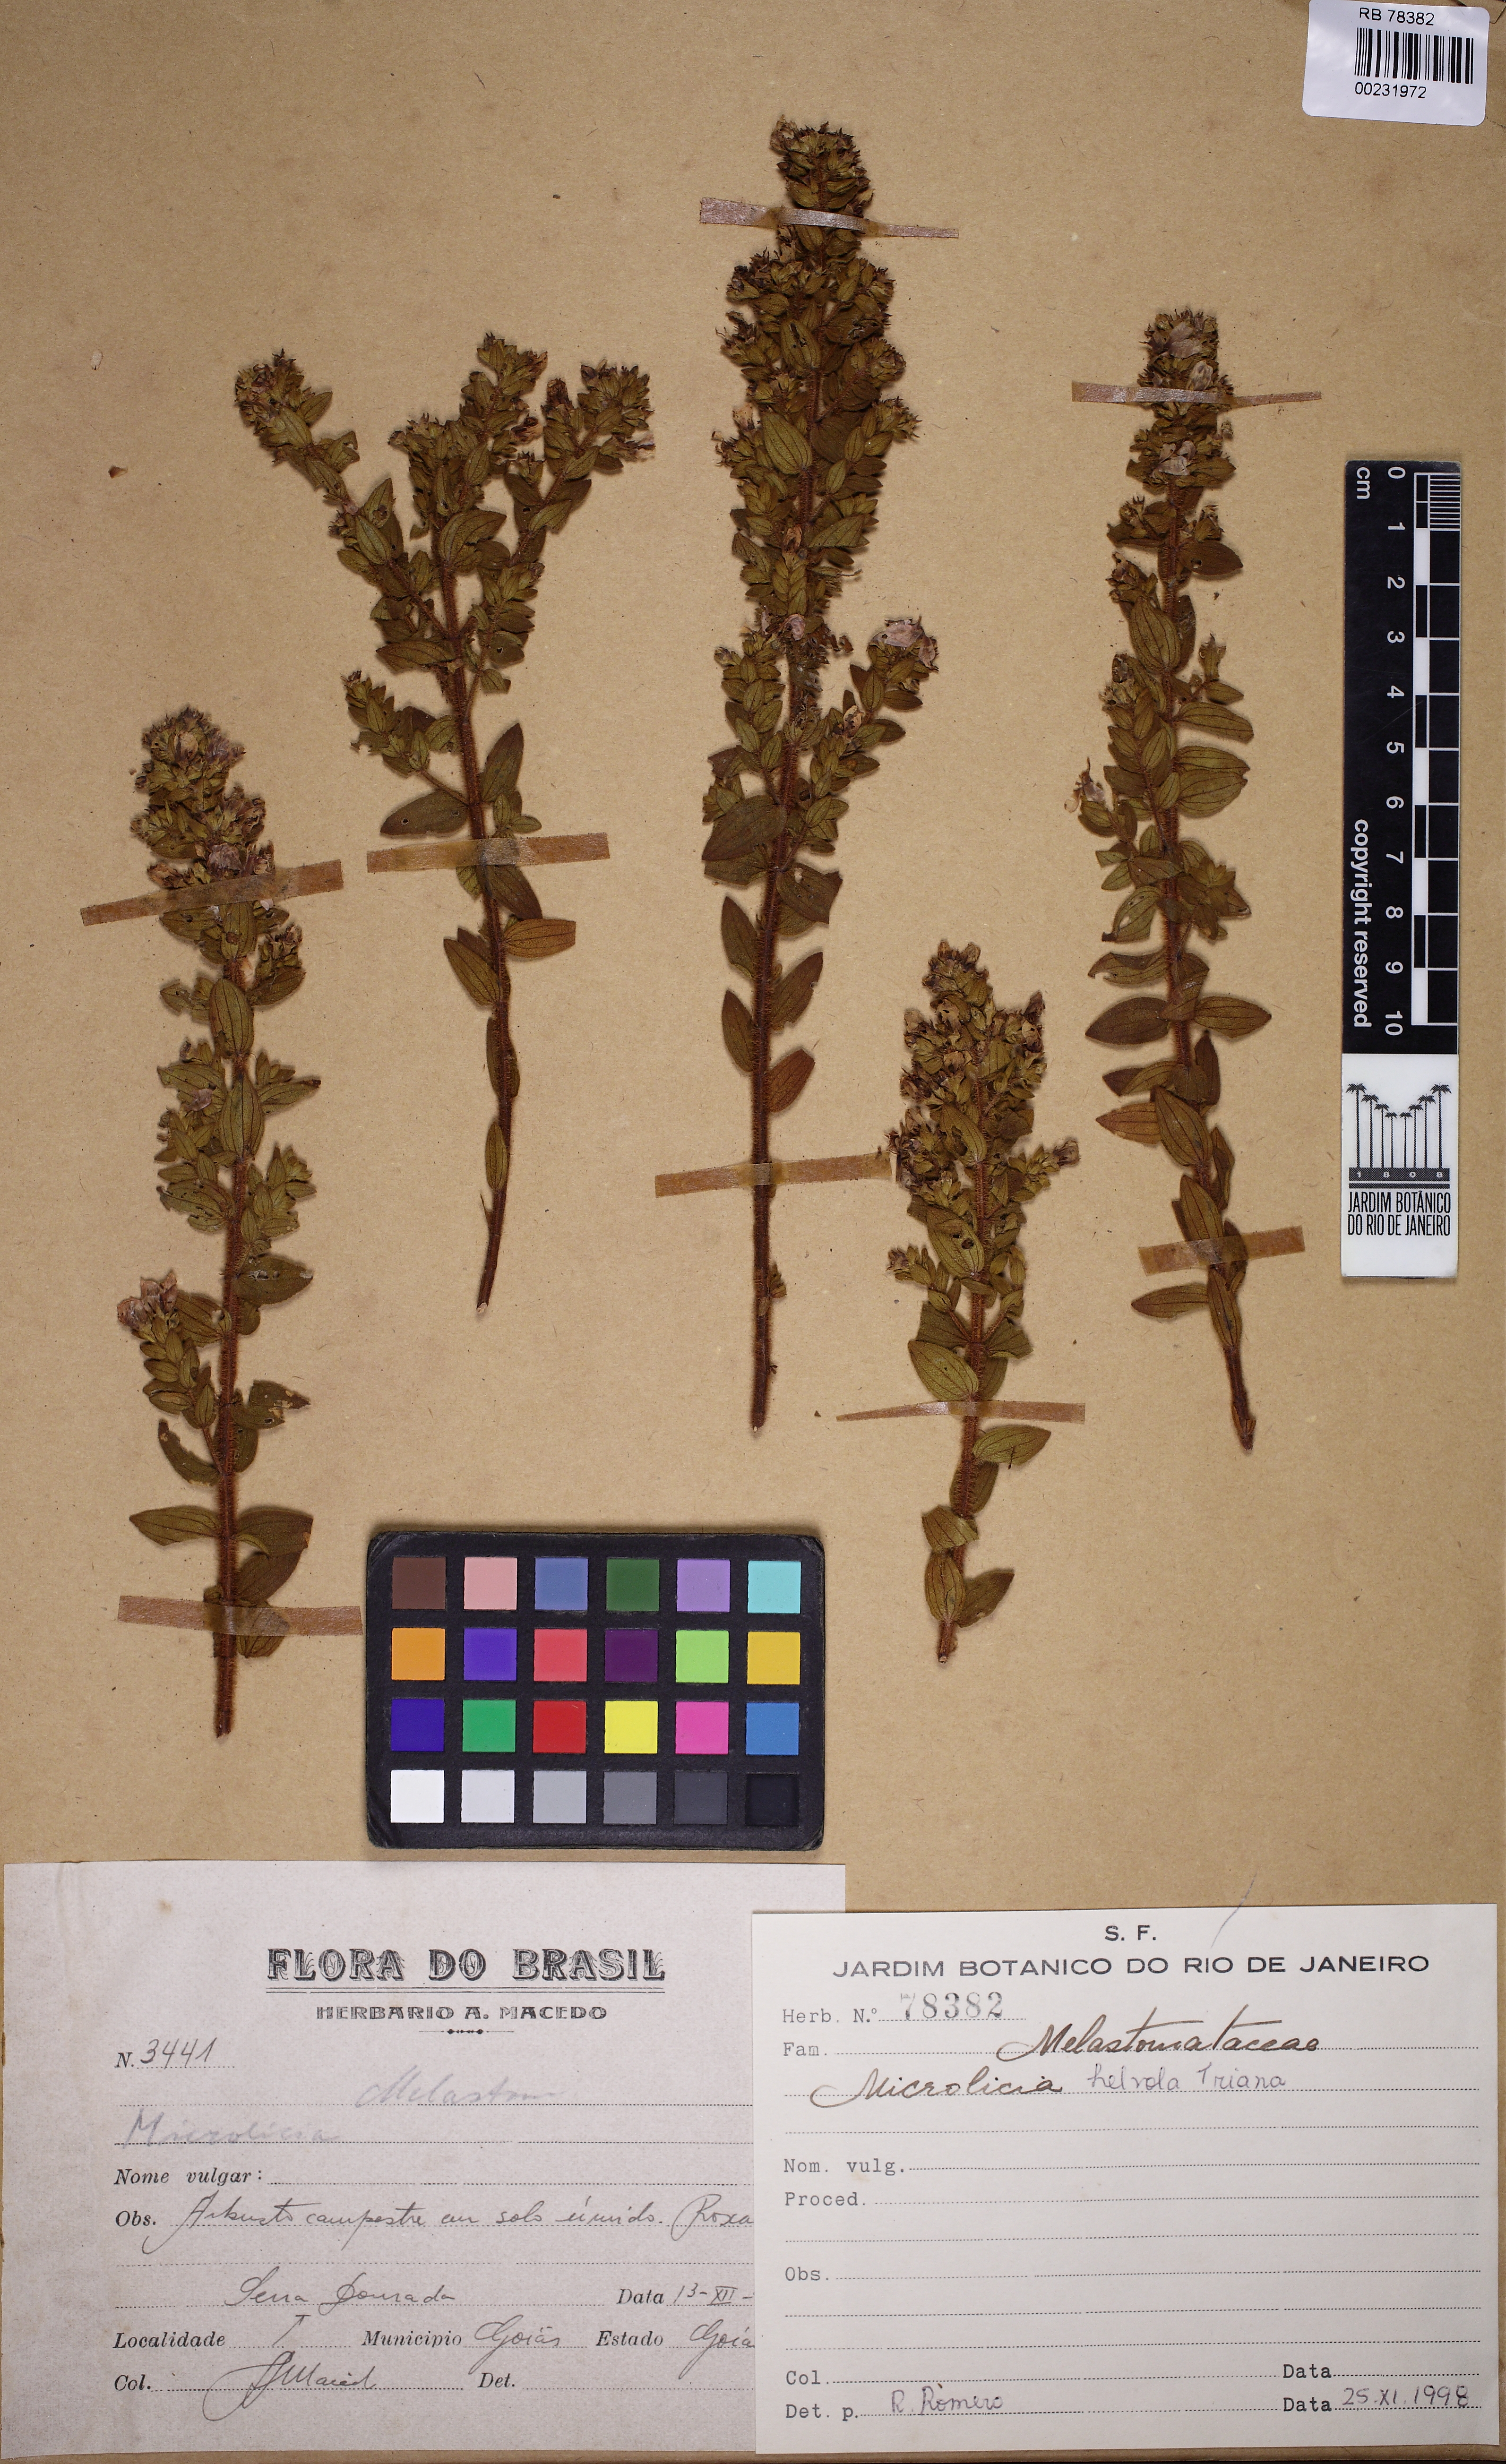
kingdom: Plantae
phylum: Tracheophyta
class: Magnoliopsida
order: Myrtales
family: Melastomataceae
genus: Microlicia
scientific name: Microlicia
